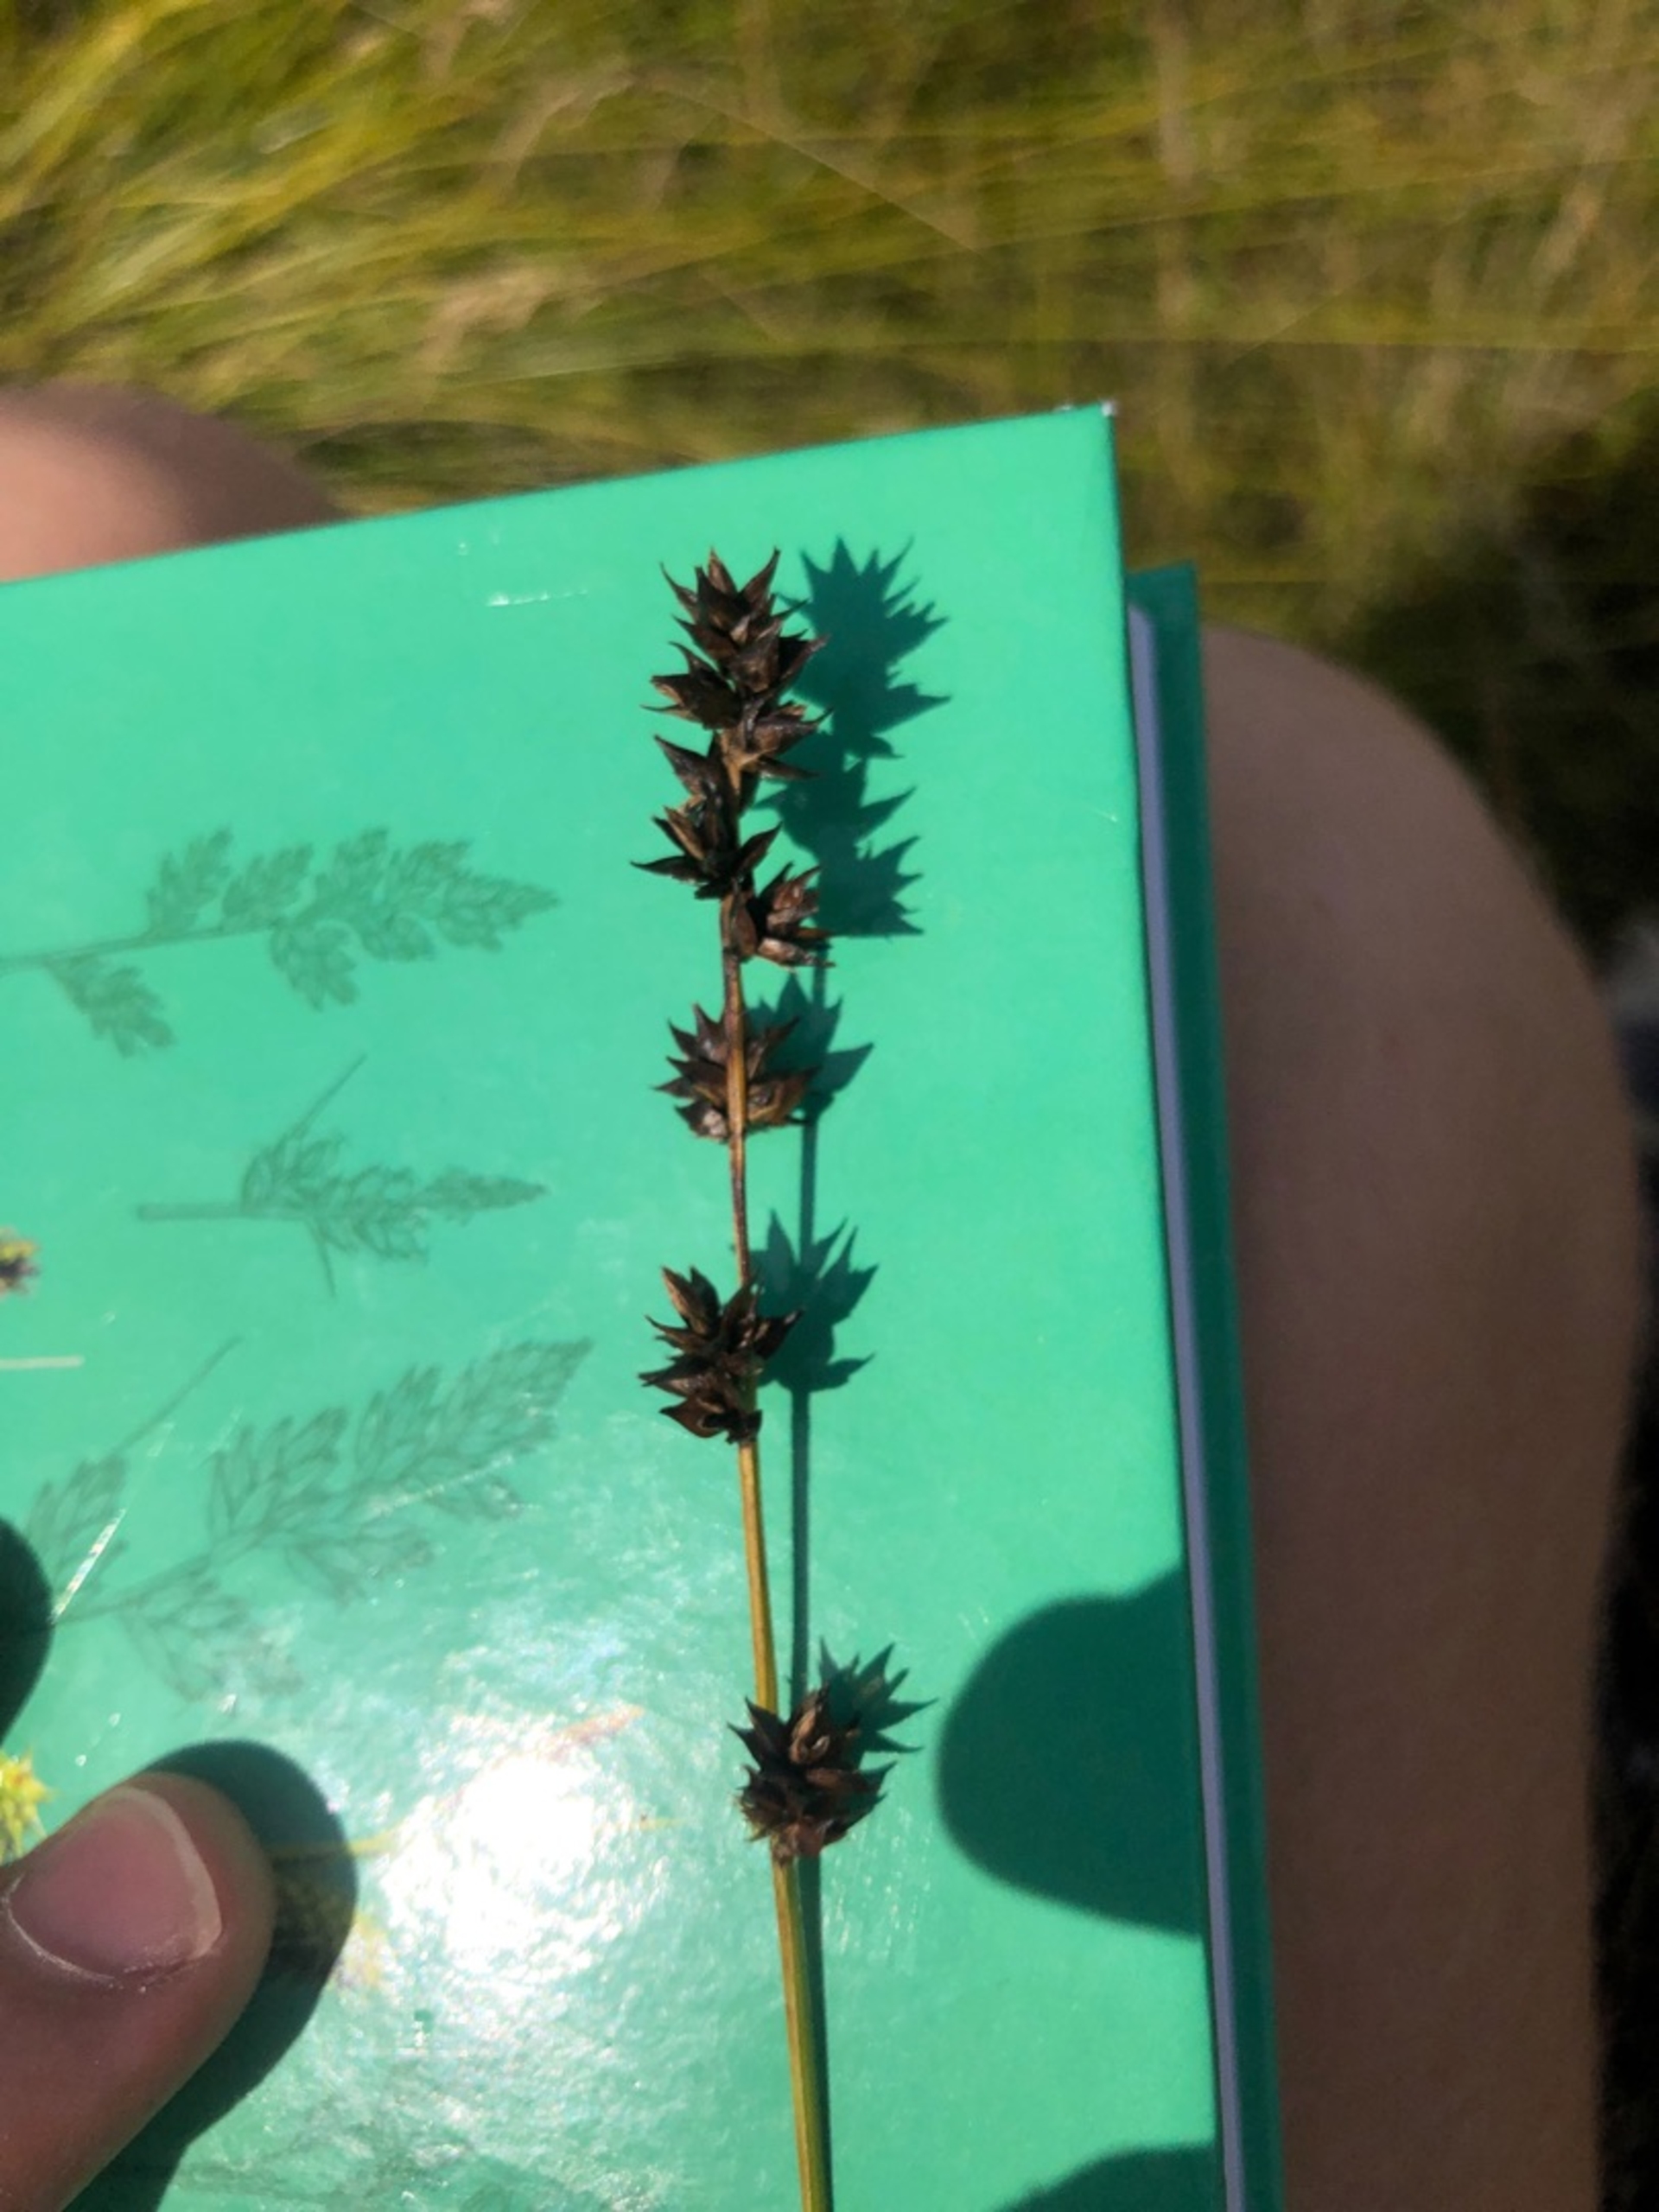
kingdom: Plantae
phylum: Tracheophyta
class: Liliopsida
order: Poales
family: Cyperaceae
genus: Carex
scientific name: Carex divulsa
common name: Mellembrudt star
